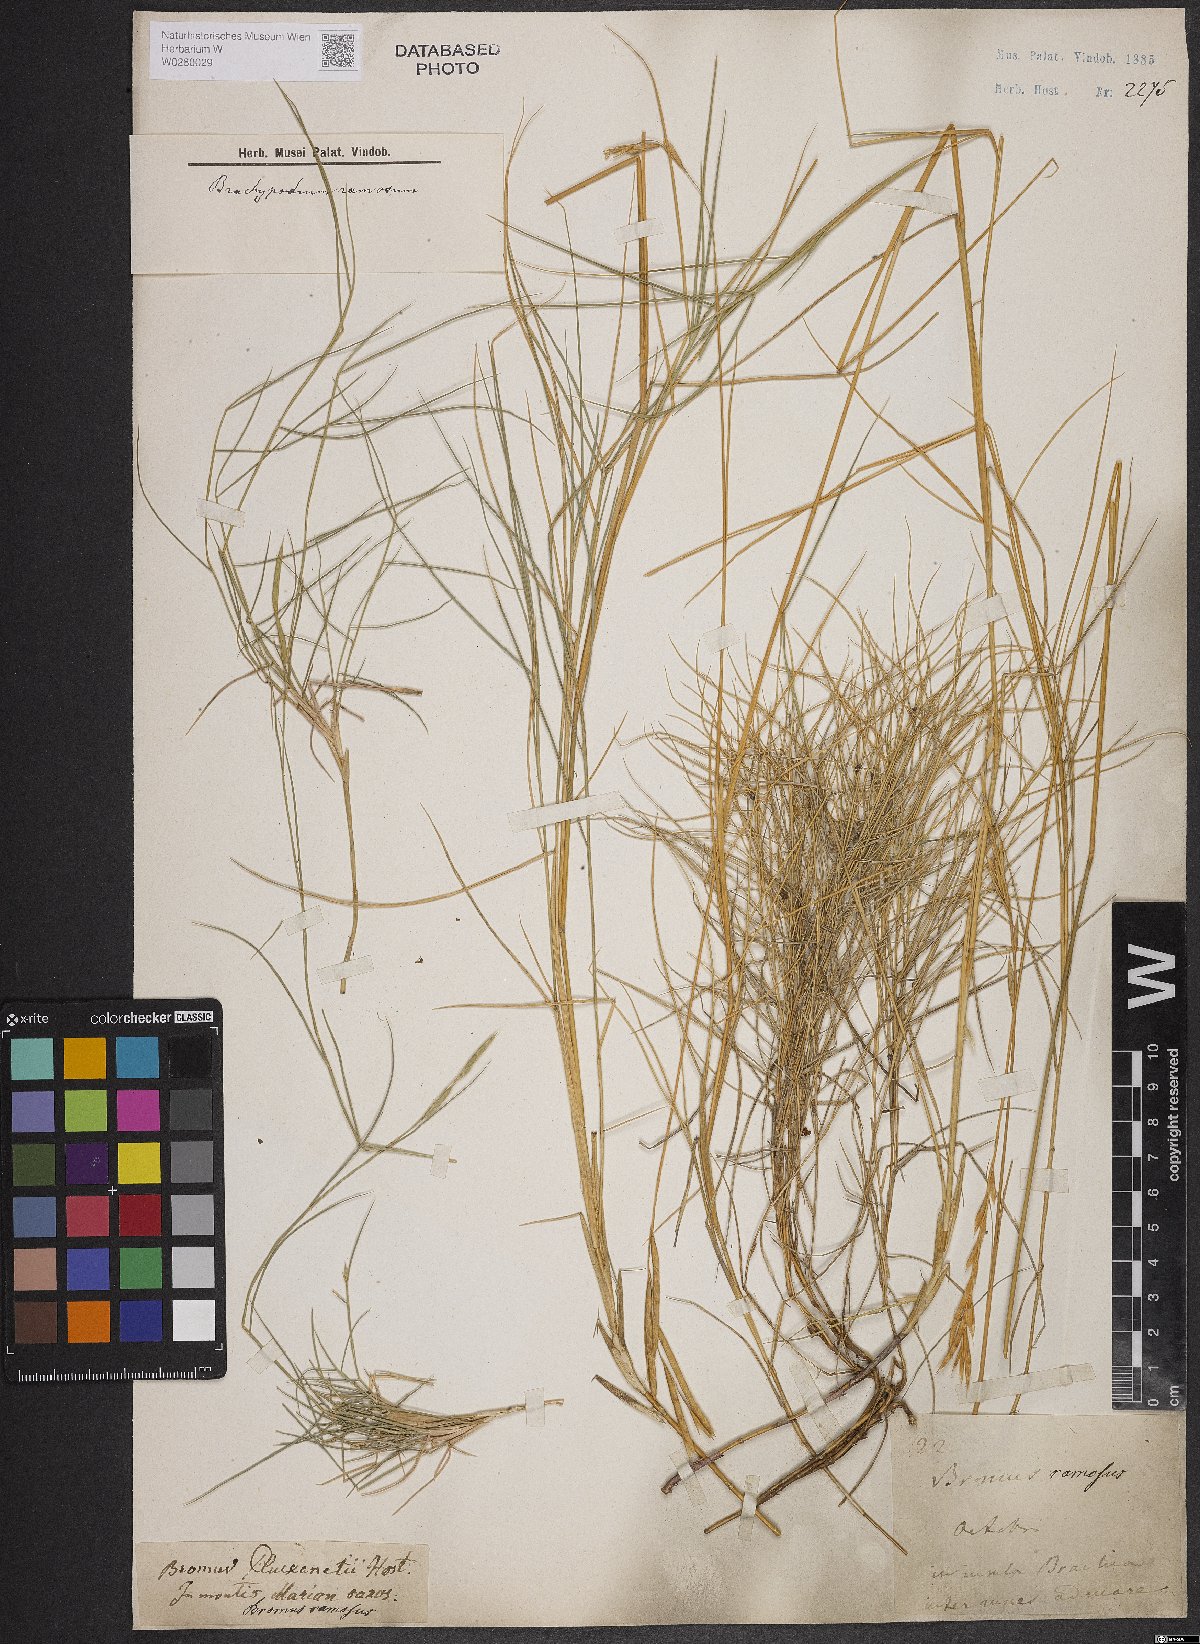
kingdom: Plantae
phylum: Tracheophyta
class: Liliopsida
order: Poales
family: Poaceae
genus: Brachypodium
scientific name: Brachypodium retusum
